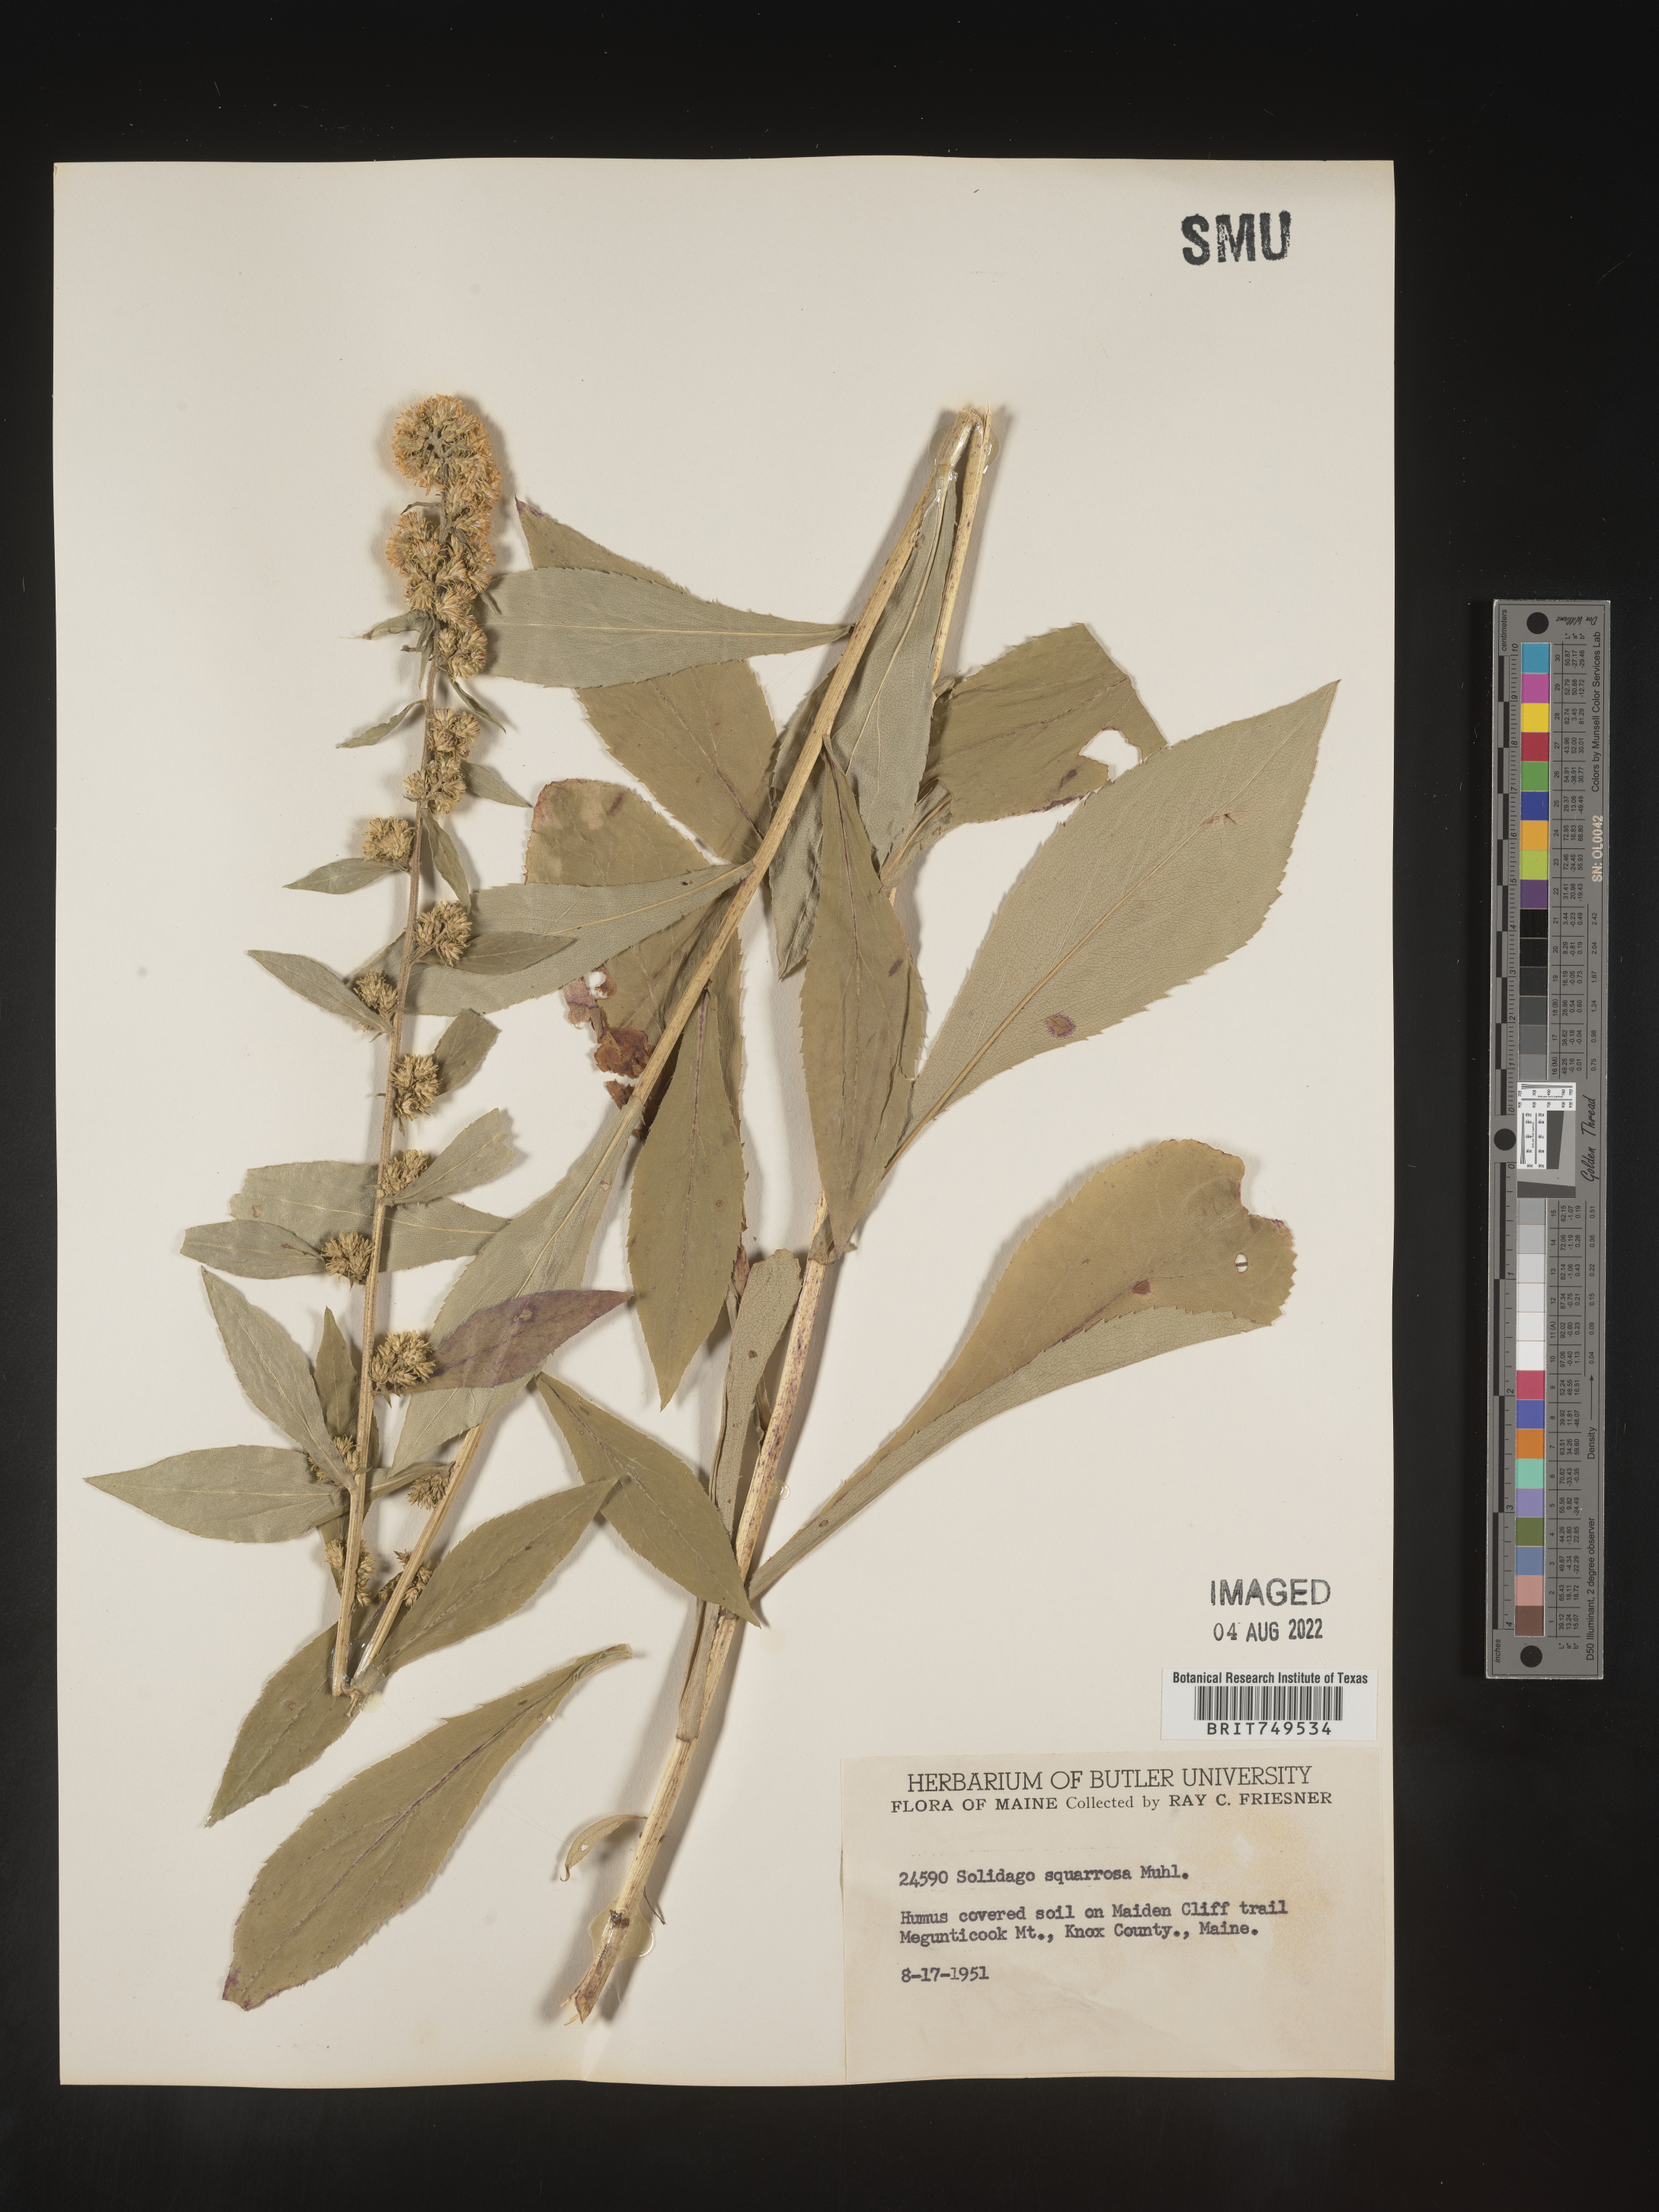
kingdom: Plantae
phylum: Tracheophyta
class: Magnoliopsida
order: Asterales
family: Asteraceae
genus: Solidago
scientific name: Solidago squarrosa
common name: Stout goldenrod
